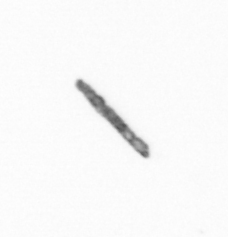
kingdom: Chromista
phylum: Ochrophyta
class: Bacillariophyceae
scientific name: Bacillariophyceae
